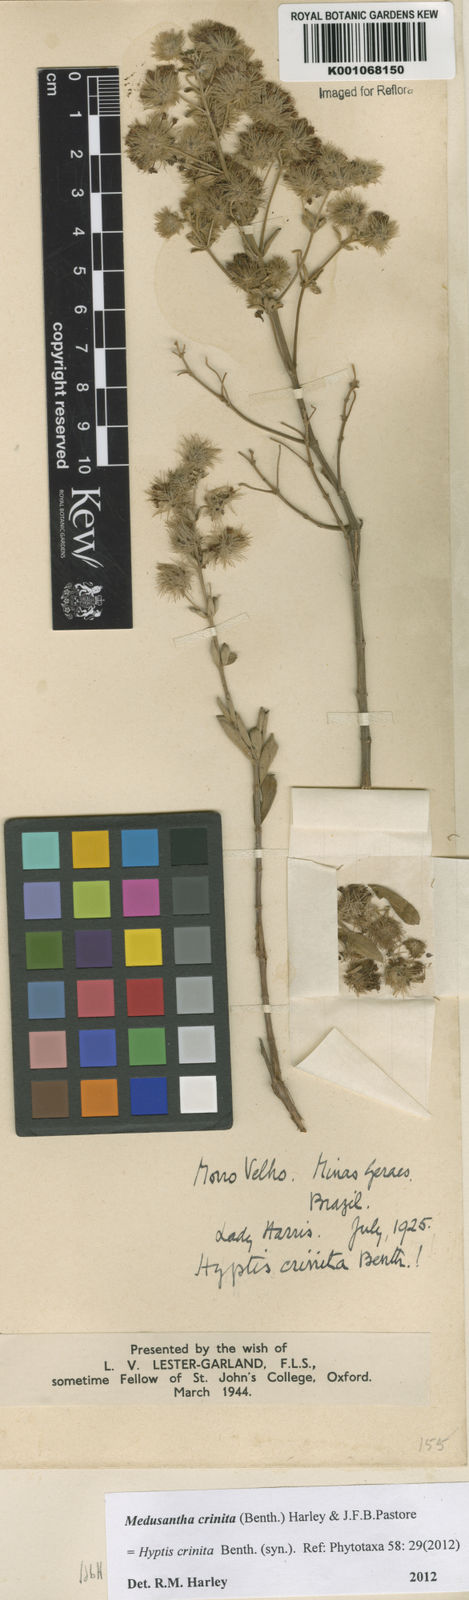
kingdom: Plantae
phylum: Tracheophyta
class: Magnoliopsida
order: Lamiales
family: Lamiaceae
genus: Medusantha
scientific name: Medusantha crinita
